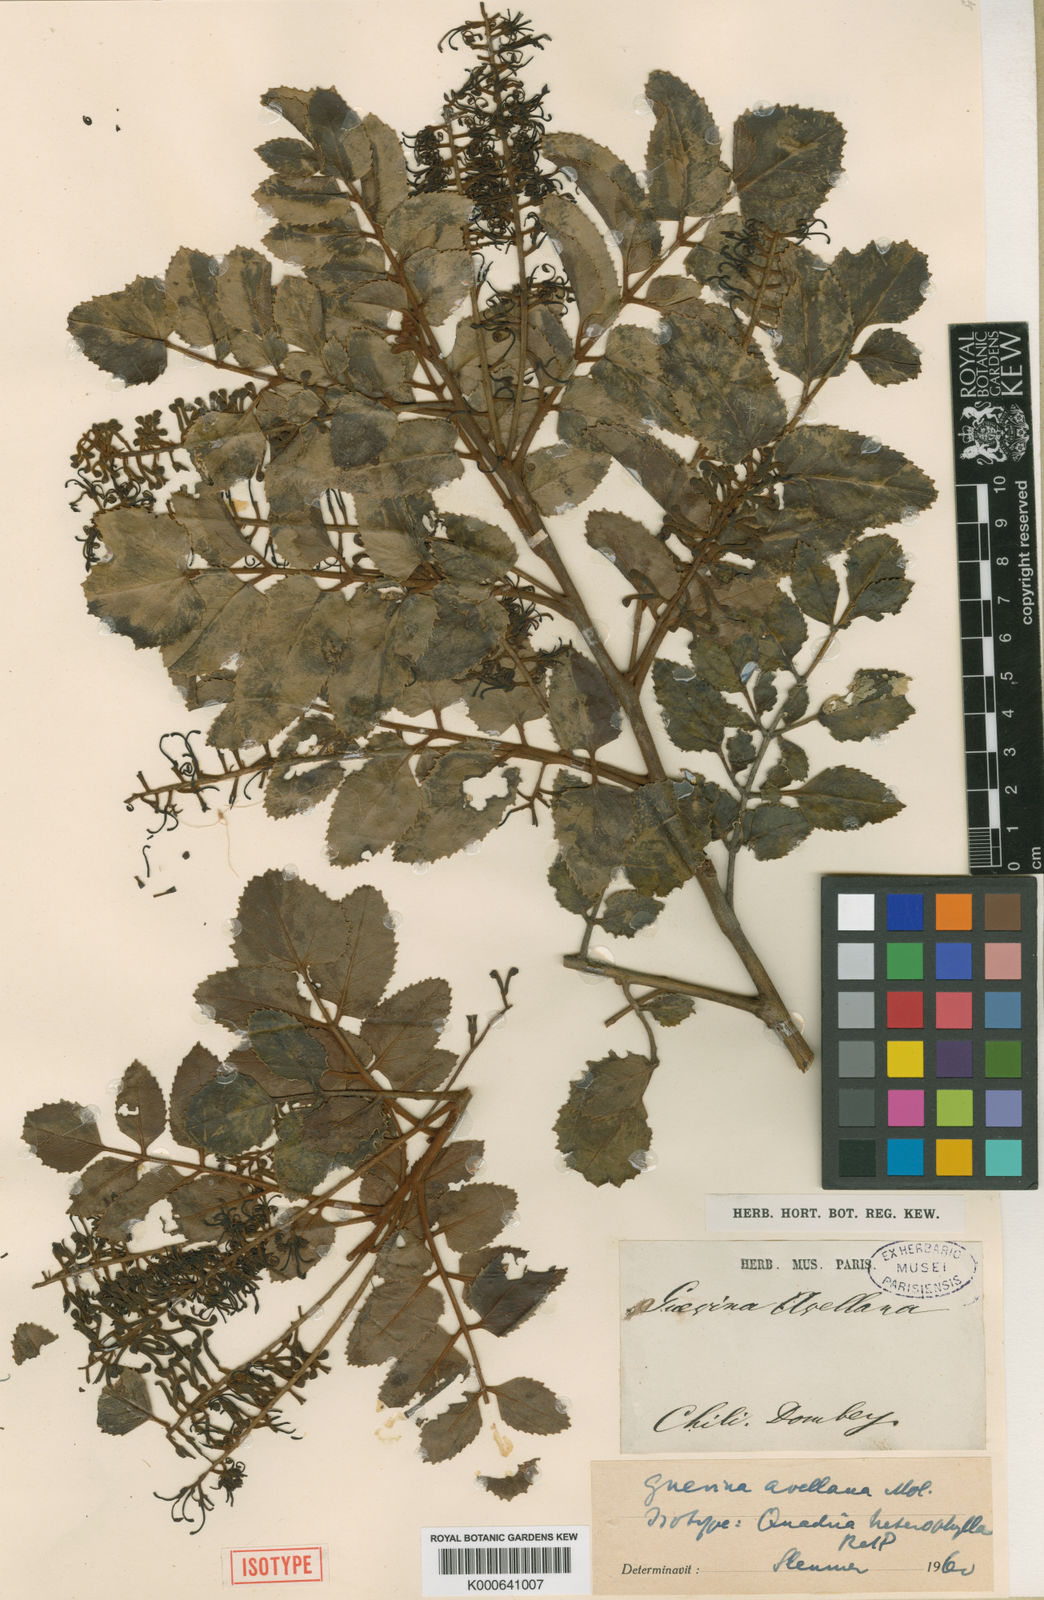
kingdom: Plantae
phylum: Tracheophyta
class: Magnoliopsida
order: Proteales
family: Proteaceae
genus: Gevuina
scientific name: Gevuina avellana
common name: Chilean hazel
